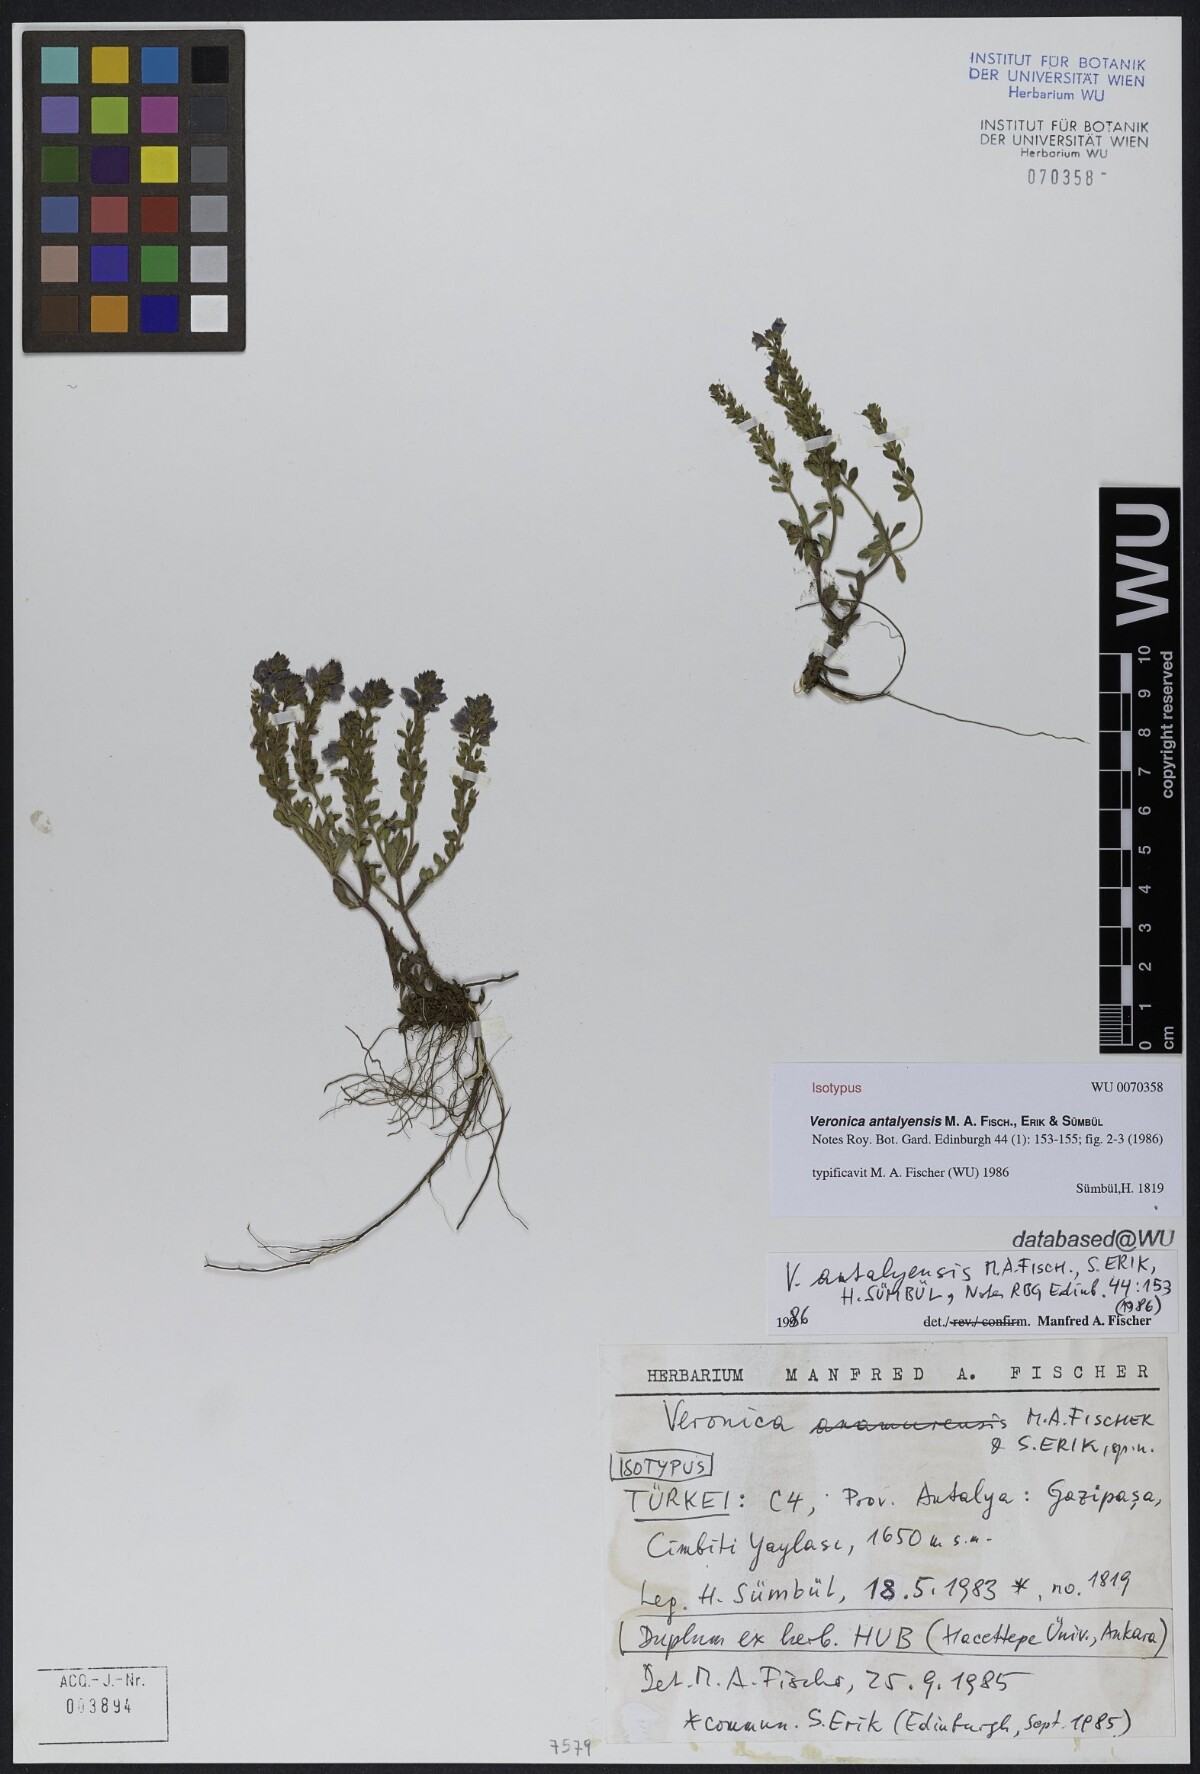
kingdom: Plantae
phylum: Tracheophyta
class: Magnoliopsida
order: Lamiales
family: Plantaginaceae
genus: Veronica
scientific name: Veronica antalyensis
